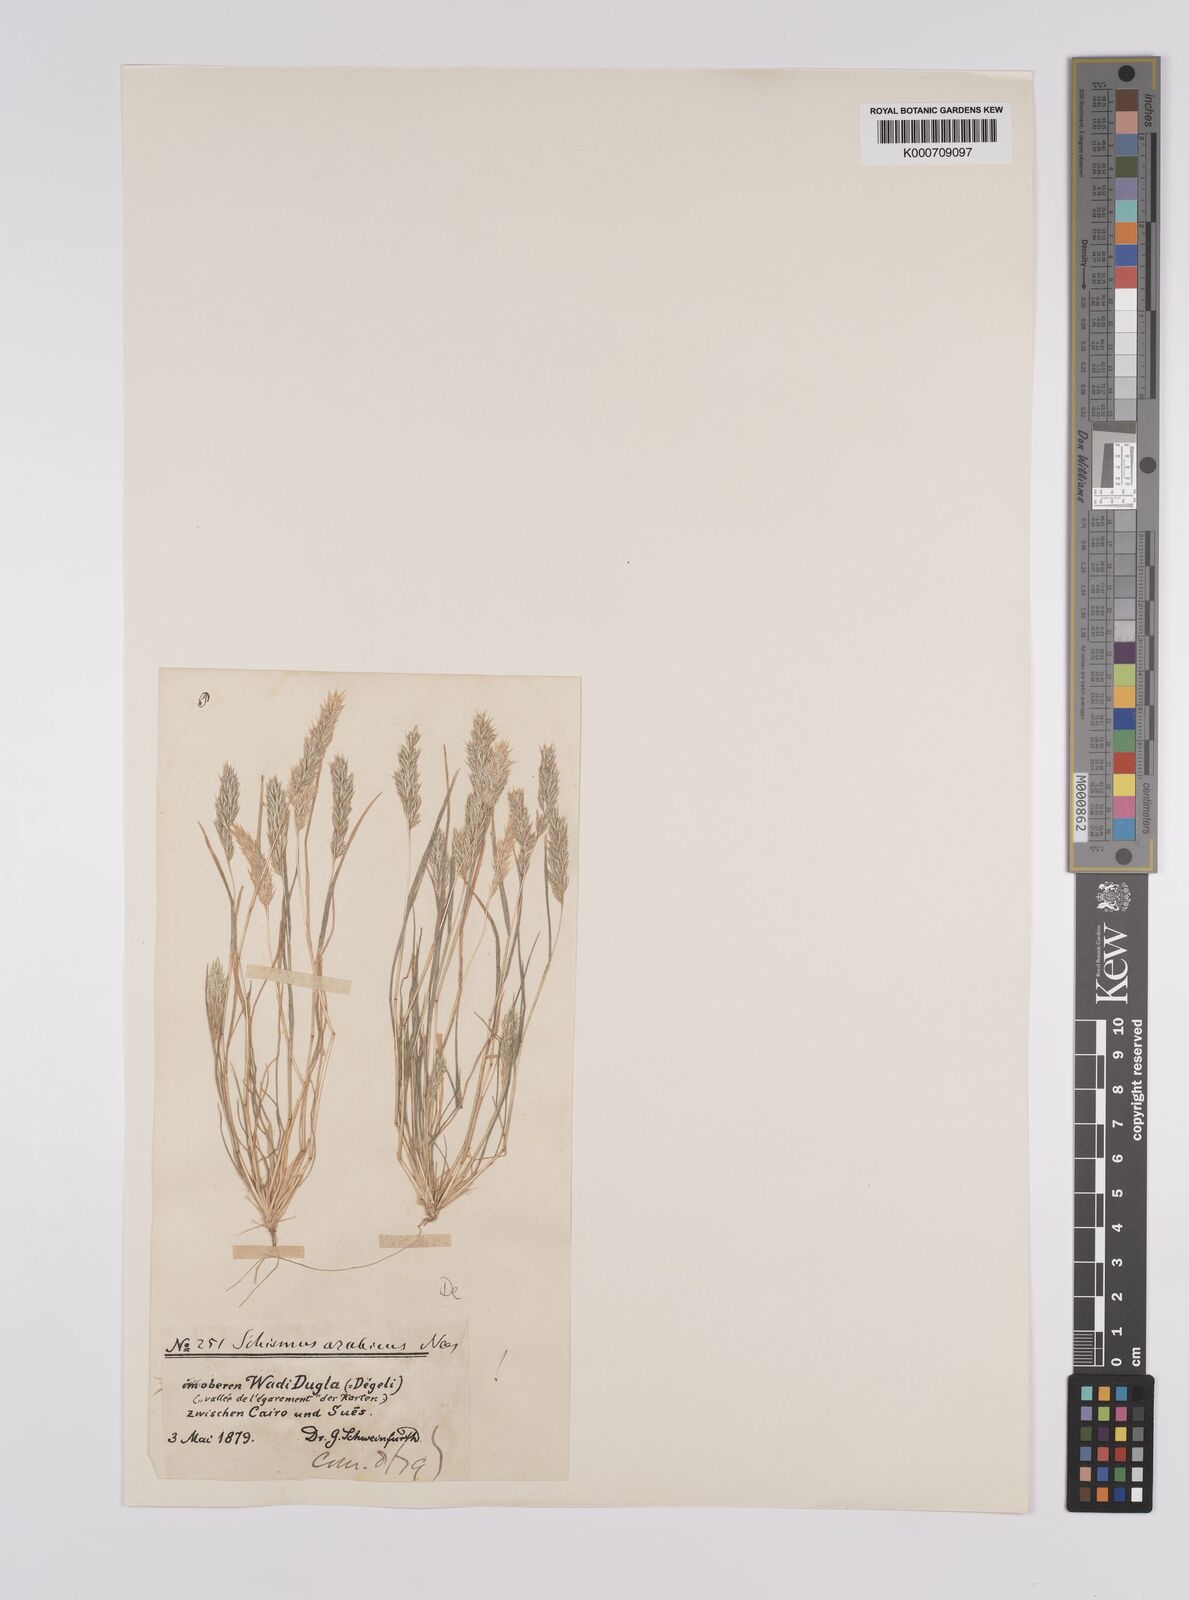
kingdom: Plantae
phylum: Tracheophyta
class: Liliopsida
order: Poales
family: Poaceae
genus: Schismus
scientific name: Schismus arabicus
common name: Arabian schismus
